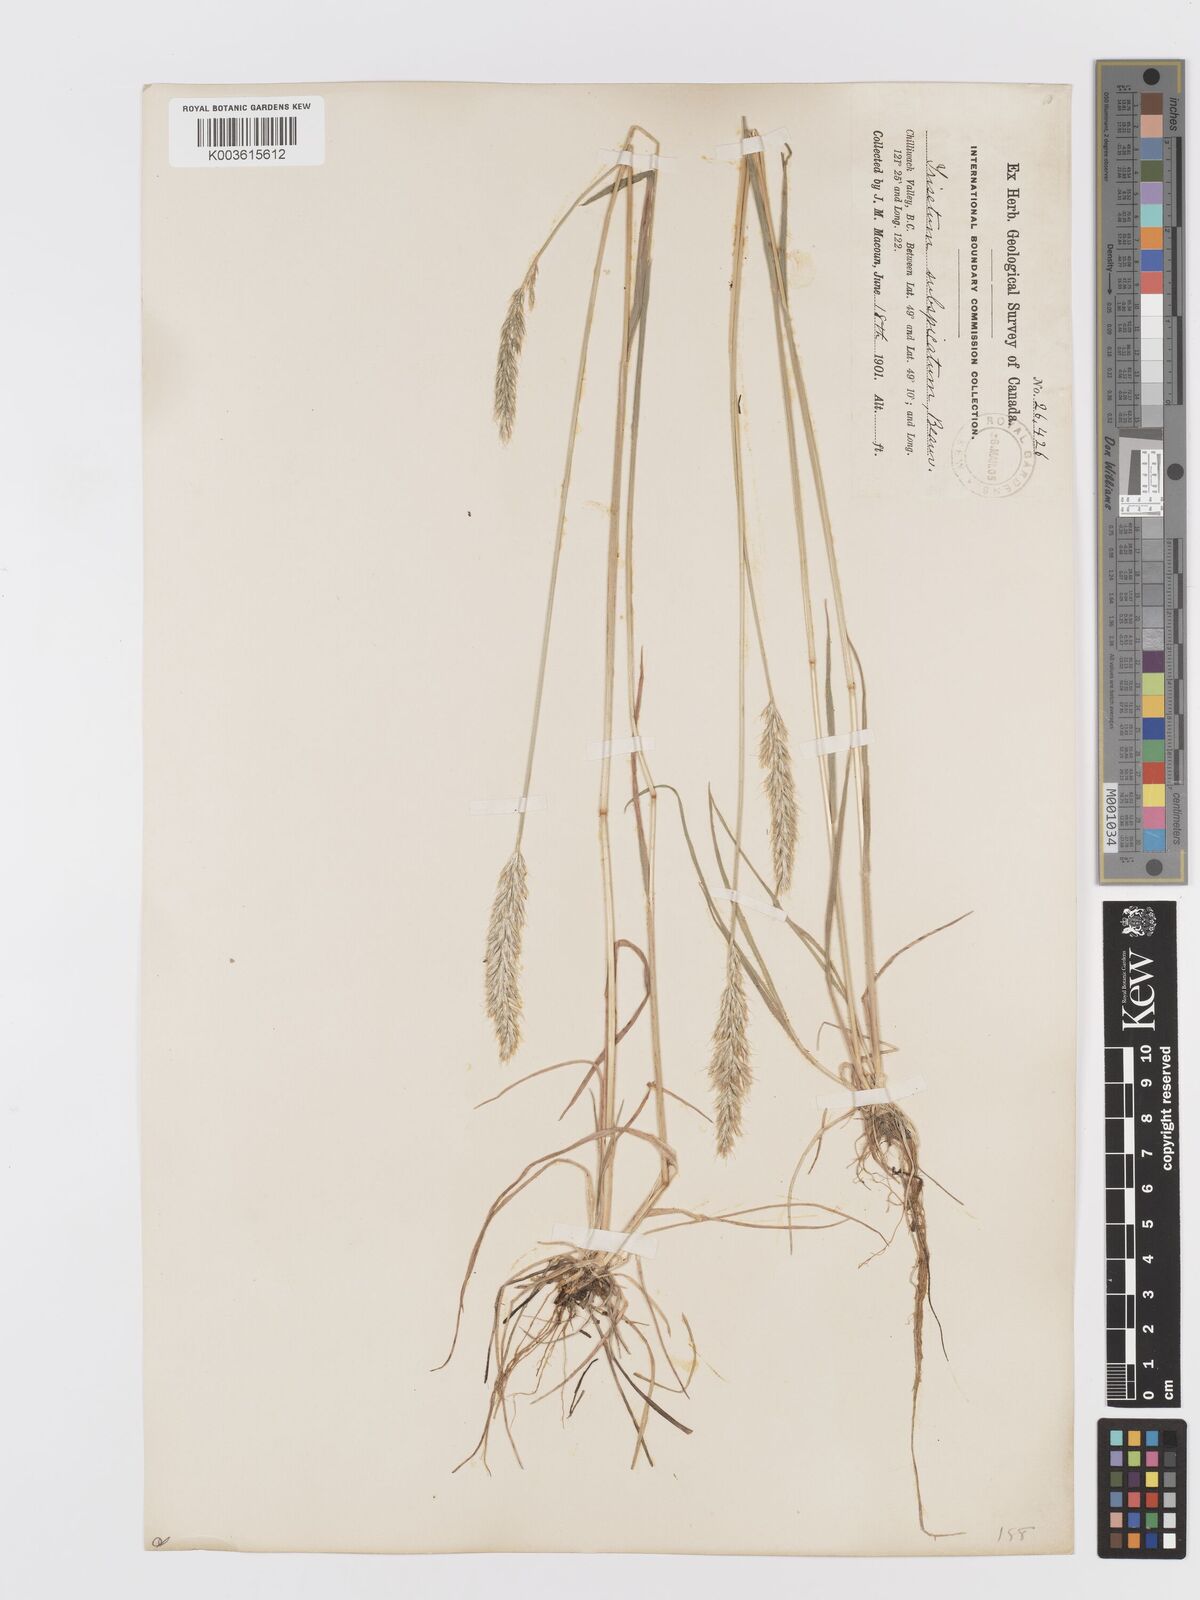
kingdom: Plantae
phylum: Tracheophyta
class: Liliopsida
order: Poales
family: Poaceae
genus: Koeleria
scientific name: Koeleria spicata
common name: Mountain trisetum
